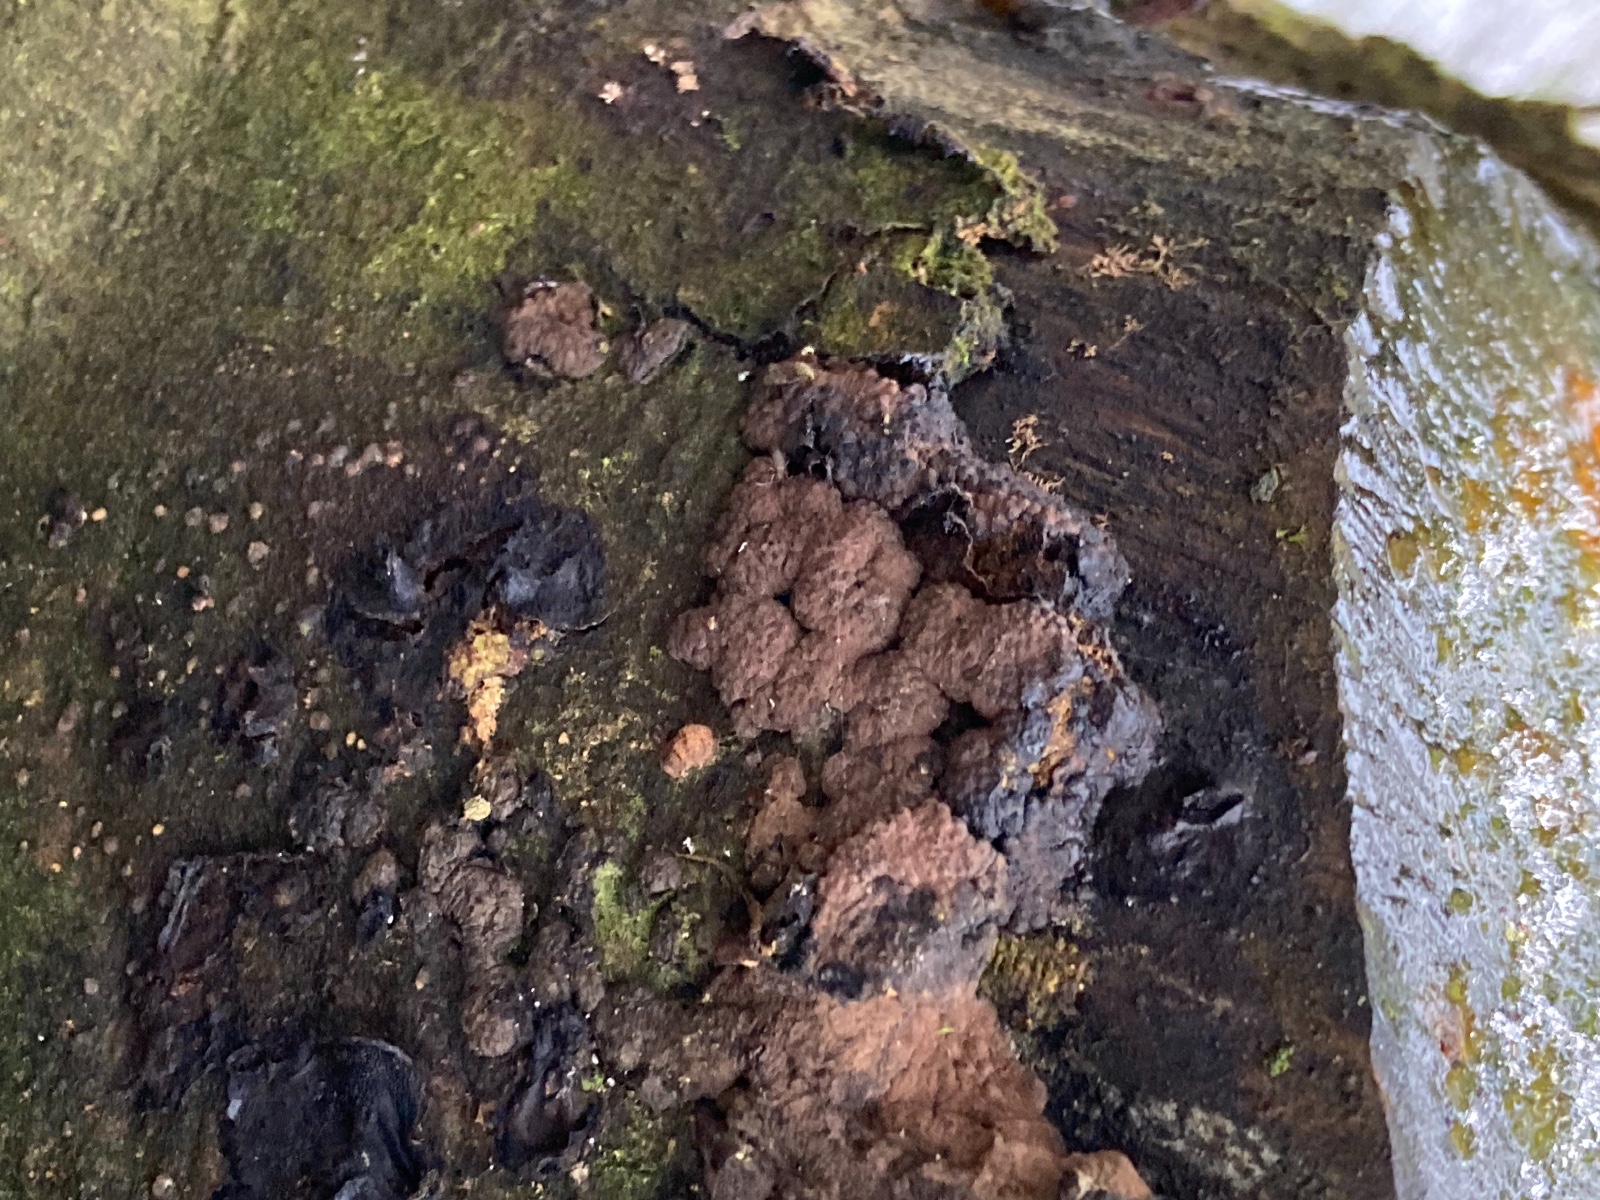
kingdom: Fungi
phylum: Ascomycota
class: Sordariomycetes
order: Xylariales
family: Hypoxylaceae
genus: Hypoxylon
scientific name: Hypoxylon rubiginosum
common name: rustfarvet kulbær
